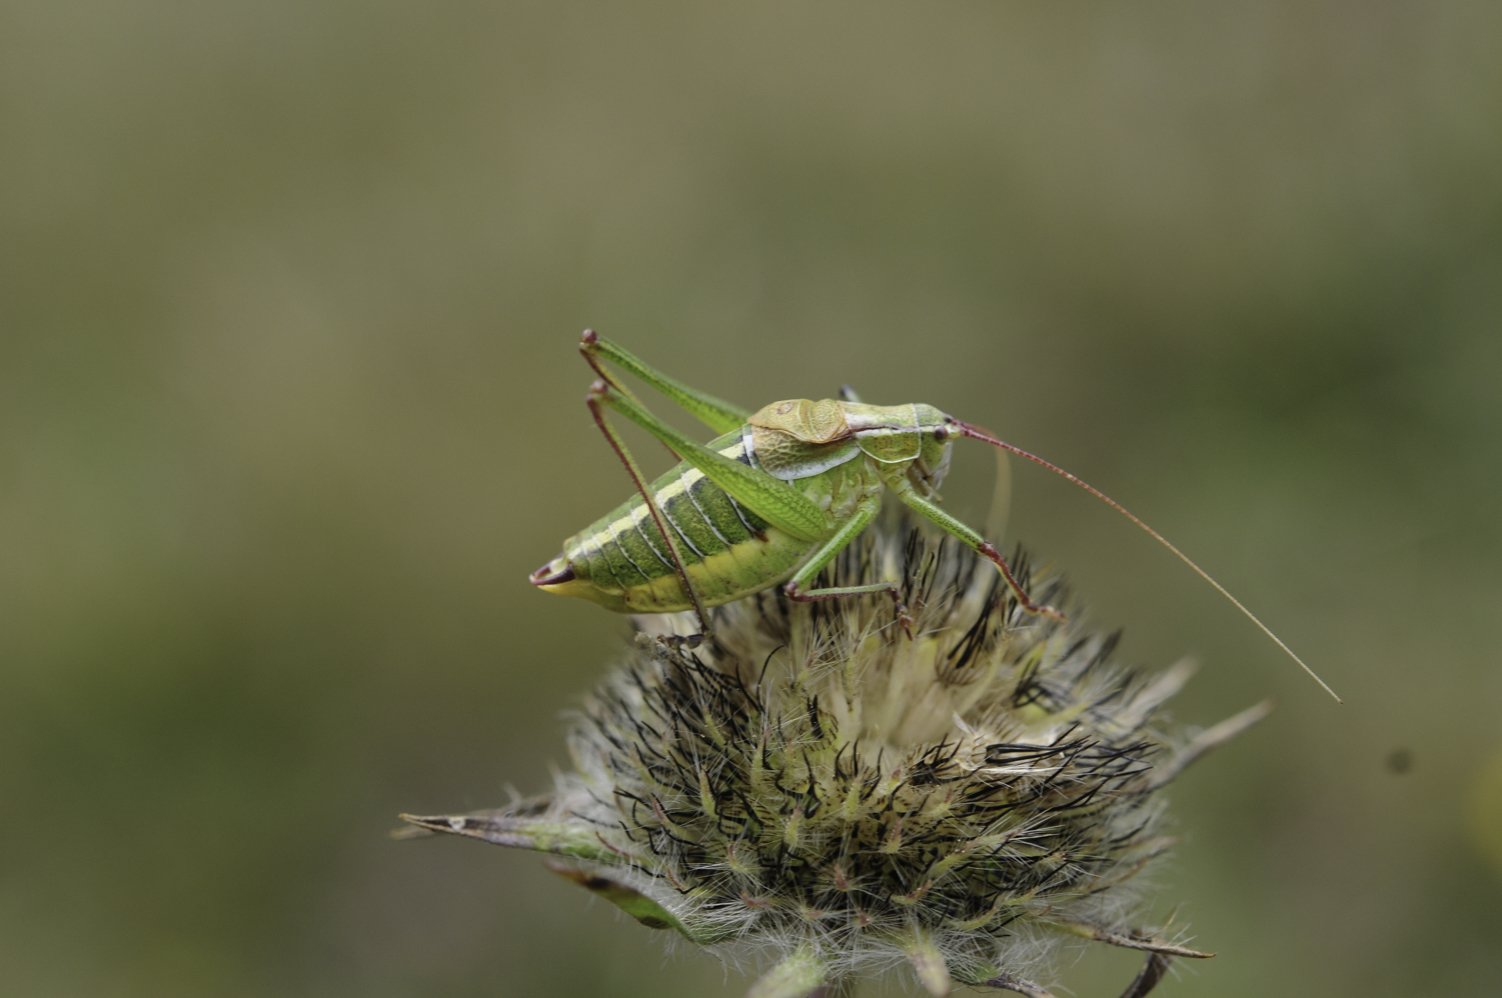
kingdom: Animalia
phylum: Arthropoda
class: Insecta
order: Orthoptera
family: Tettigoniidae
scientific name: Tettigoniidae
